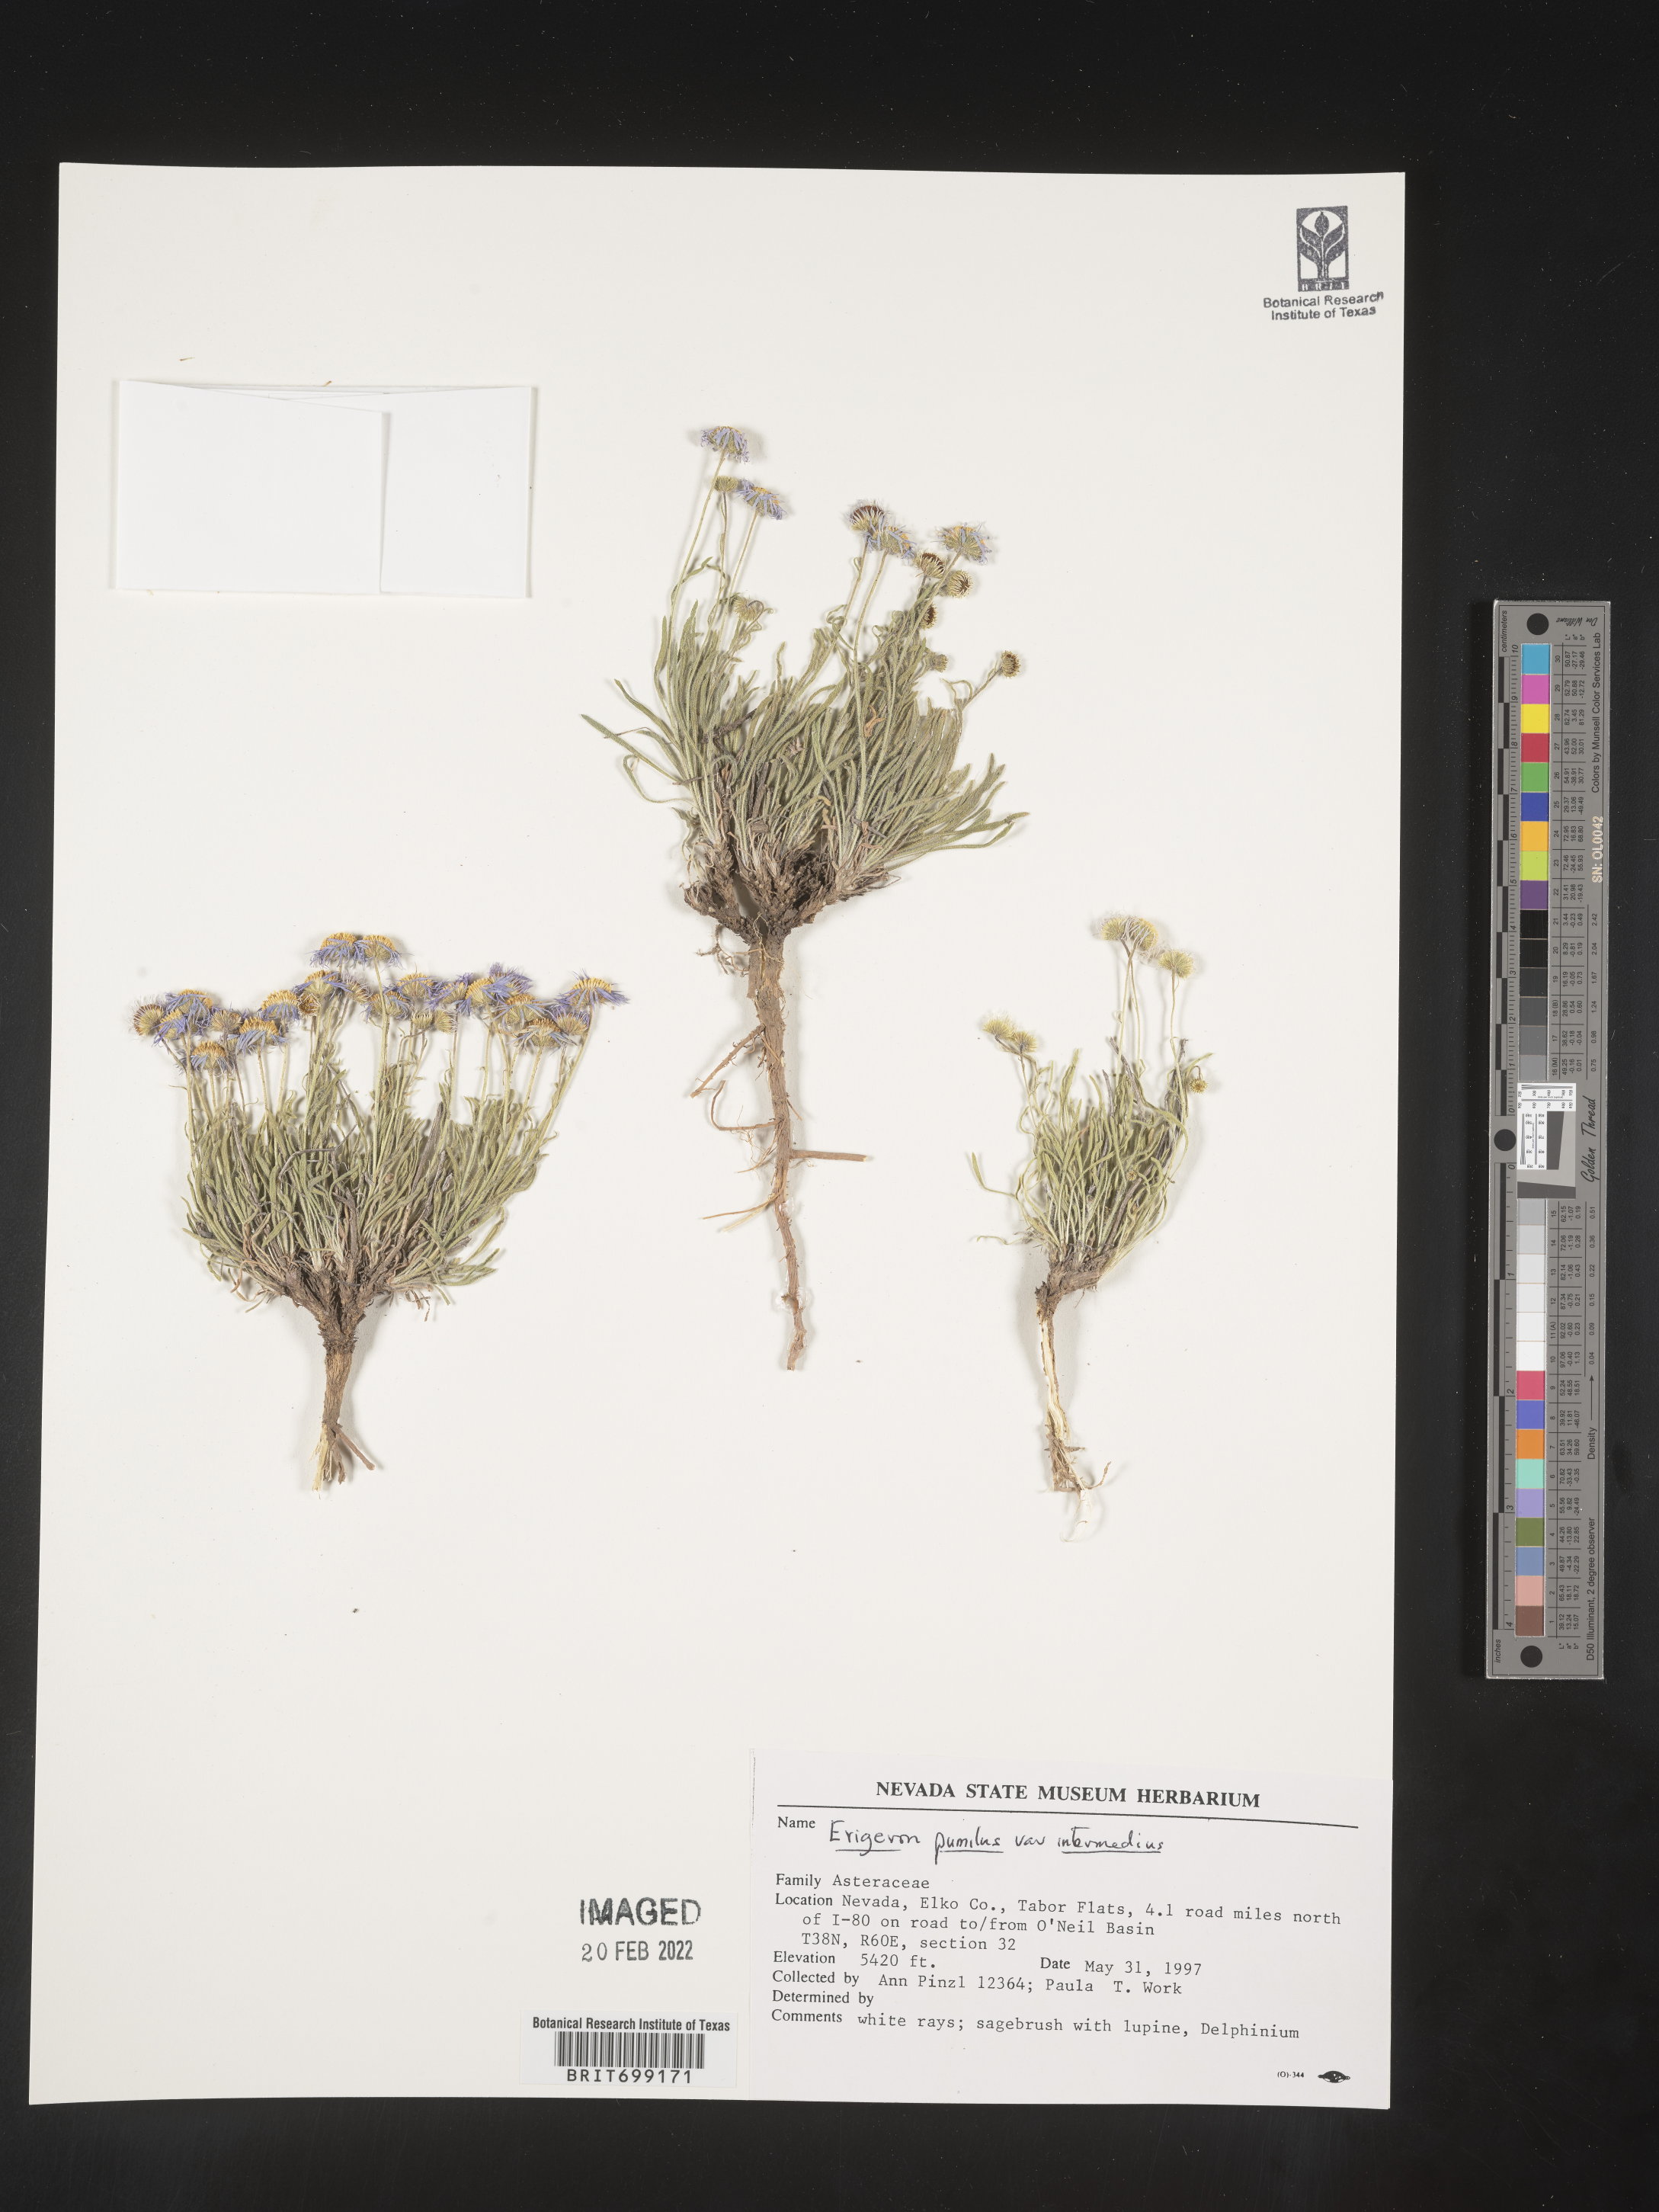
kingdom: Plantae
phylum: Tracheophyta
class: Magnoliopsida
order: Asterales
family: Asteraceae
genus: Erigeron
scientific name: Erigeron pumilus
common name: Shaggy fleabane
